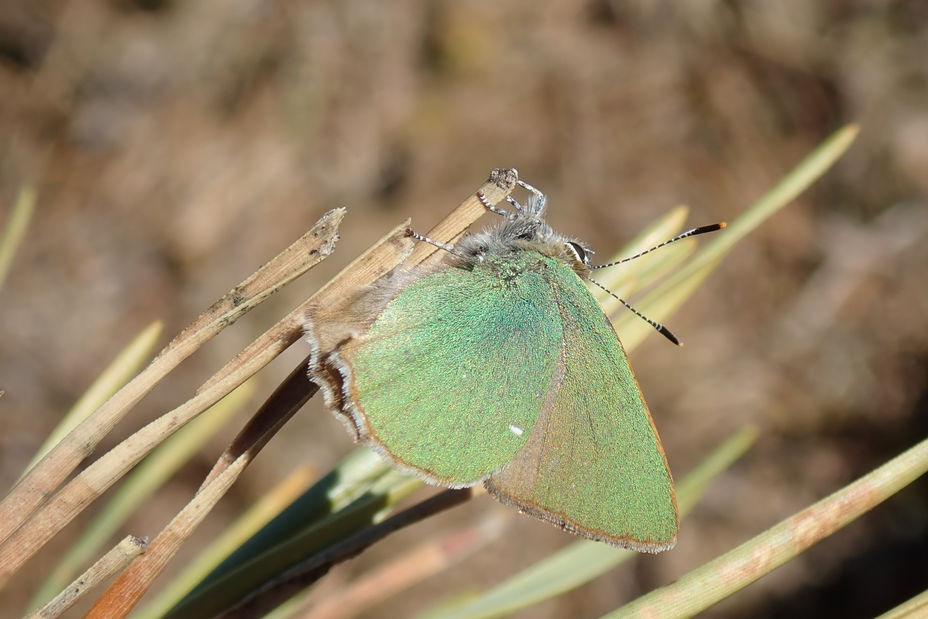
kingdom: Animalia
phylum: Arthropoda
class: Insecta
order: Lepidoptera
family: Lycaenidae
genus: Callophrys
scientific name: Callophrys rubi
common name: Grøn busksommerfugl
